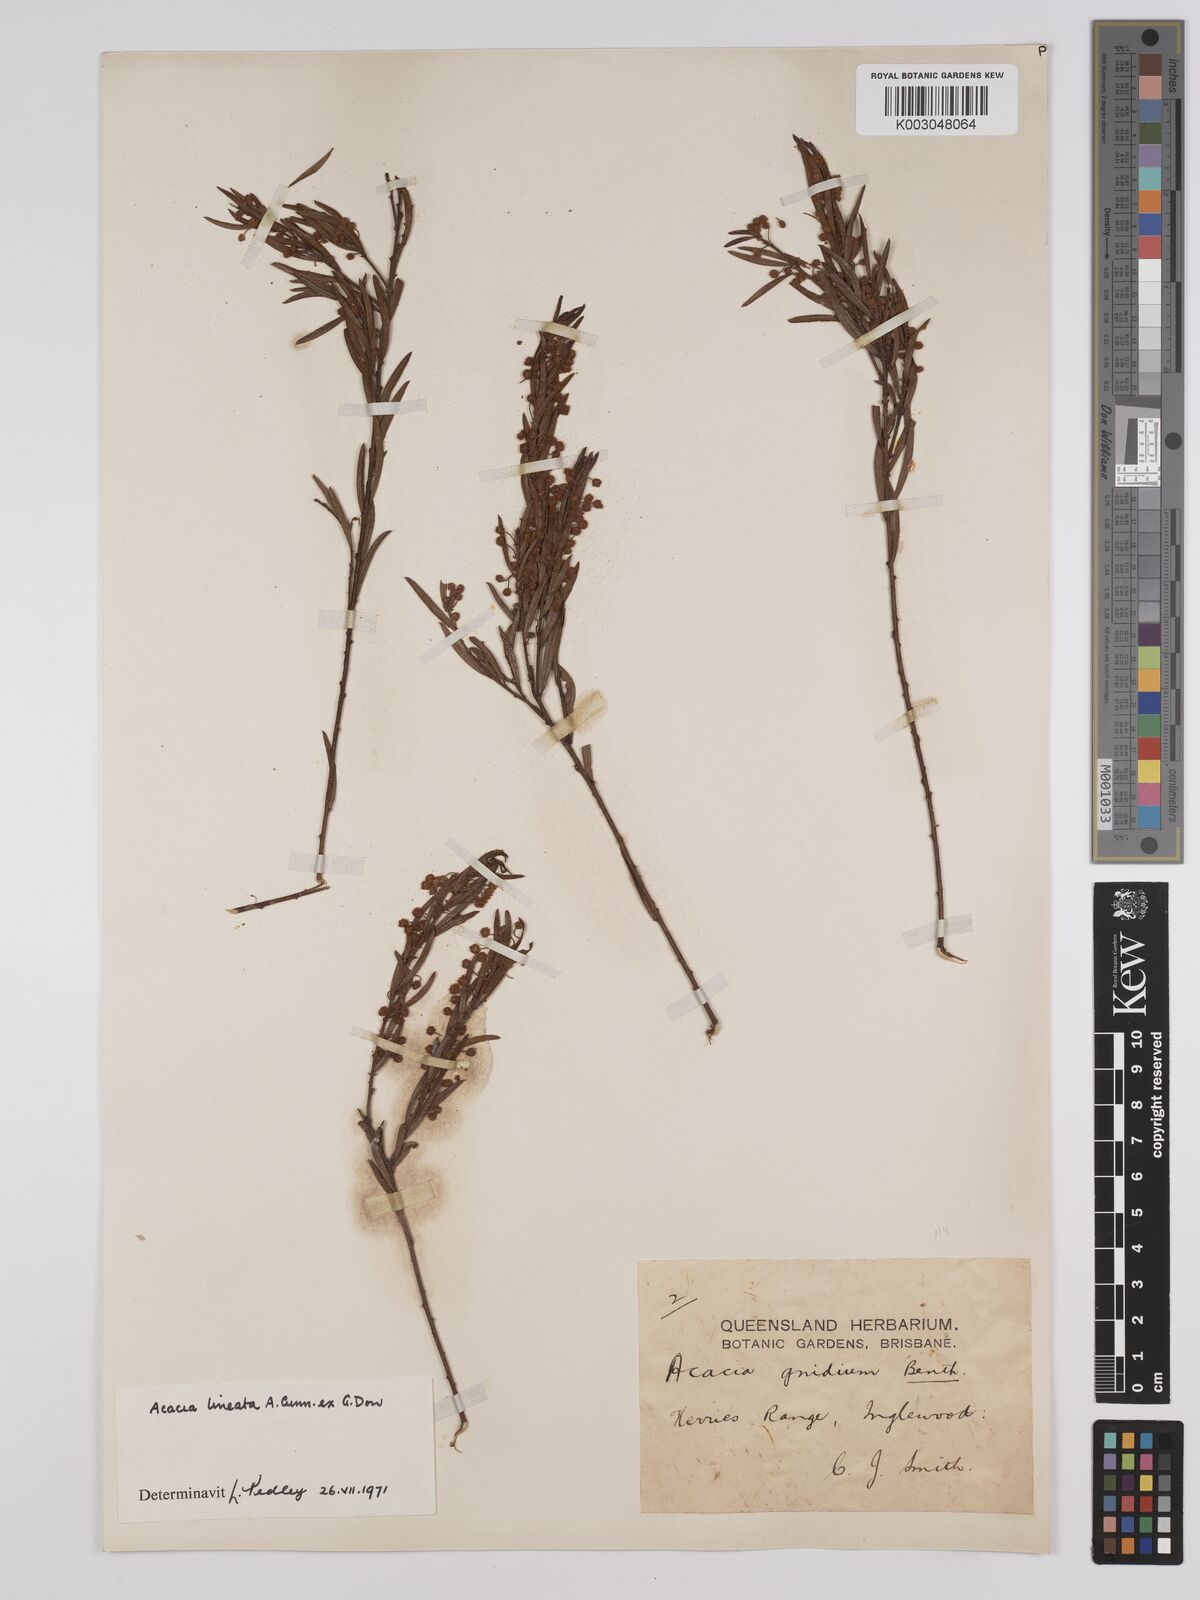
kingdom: Plantae
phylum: Tracheophyta
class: Magnoliopsida
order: Fabales
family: Fabaceae
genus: Acacia
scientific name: Acacia lineata
